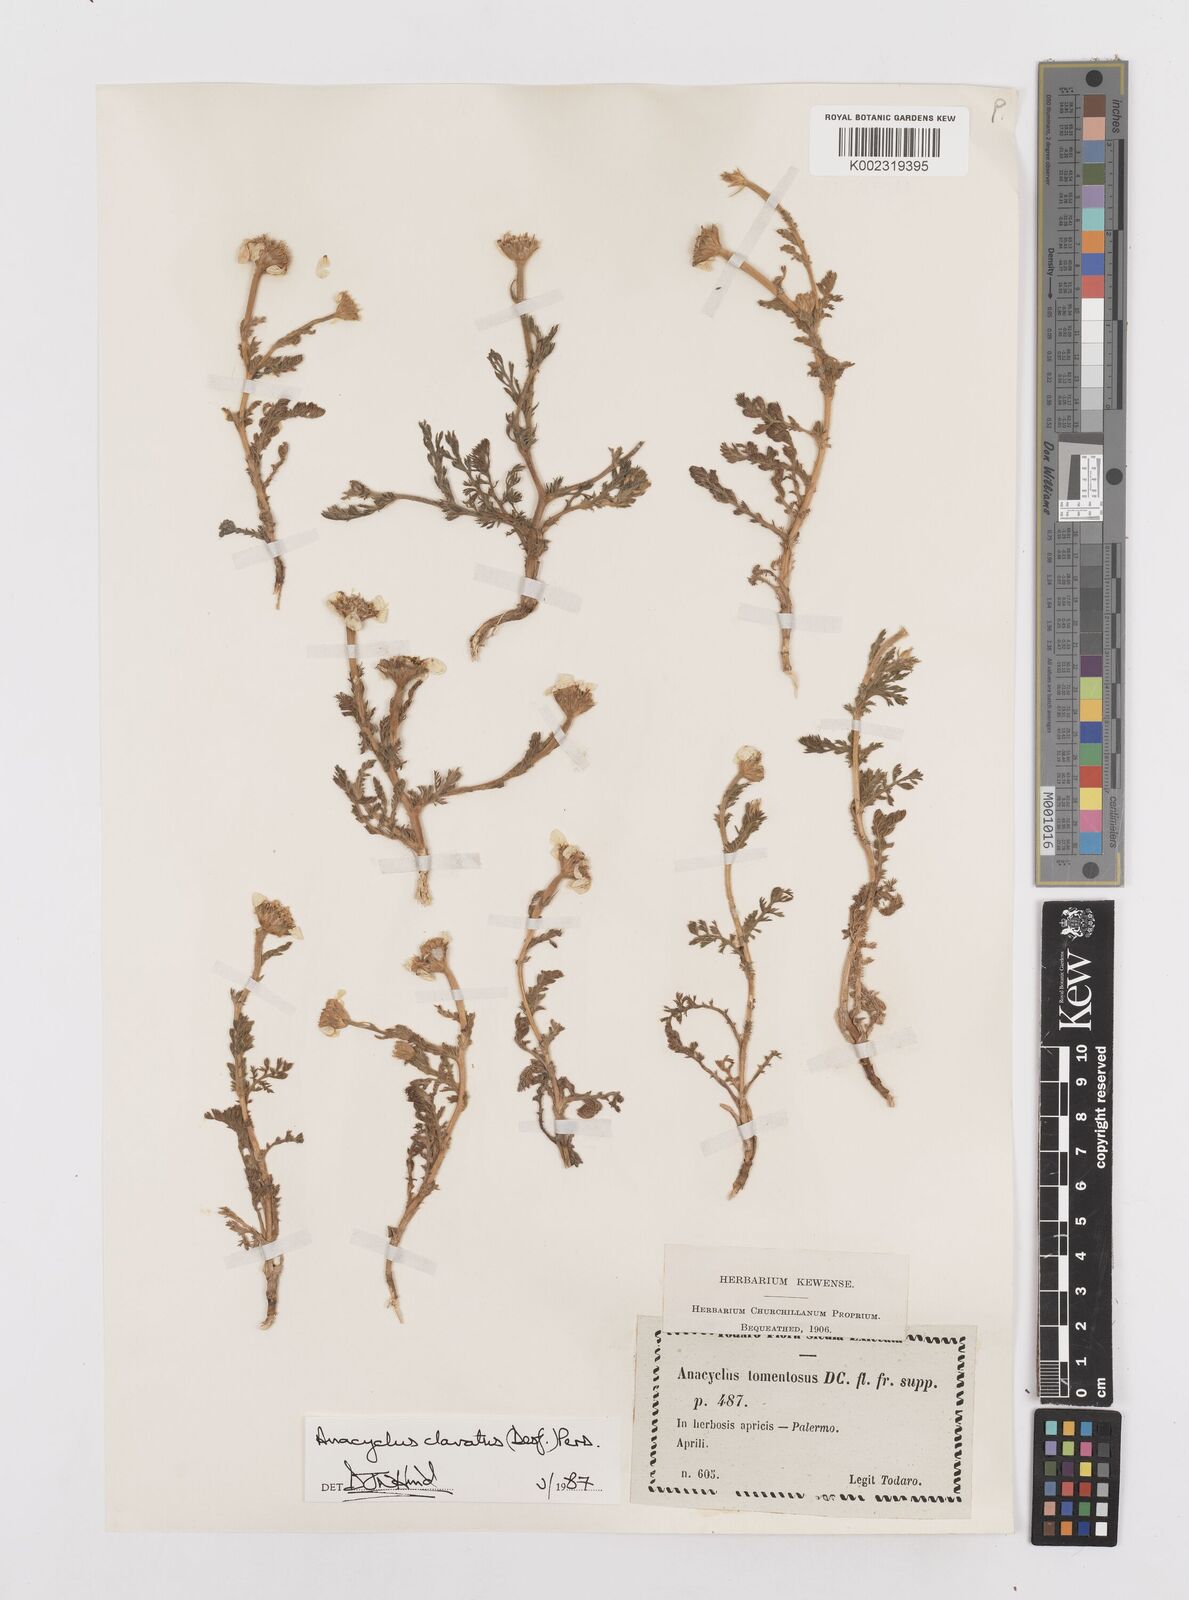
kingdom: Plantae
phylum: Tracheophyta
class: Magnoliopsida
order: Asterales
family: Asteraceae
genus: Anacyclus
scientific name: Anacyclus clavatus
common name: Whitebuttons
